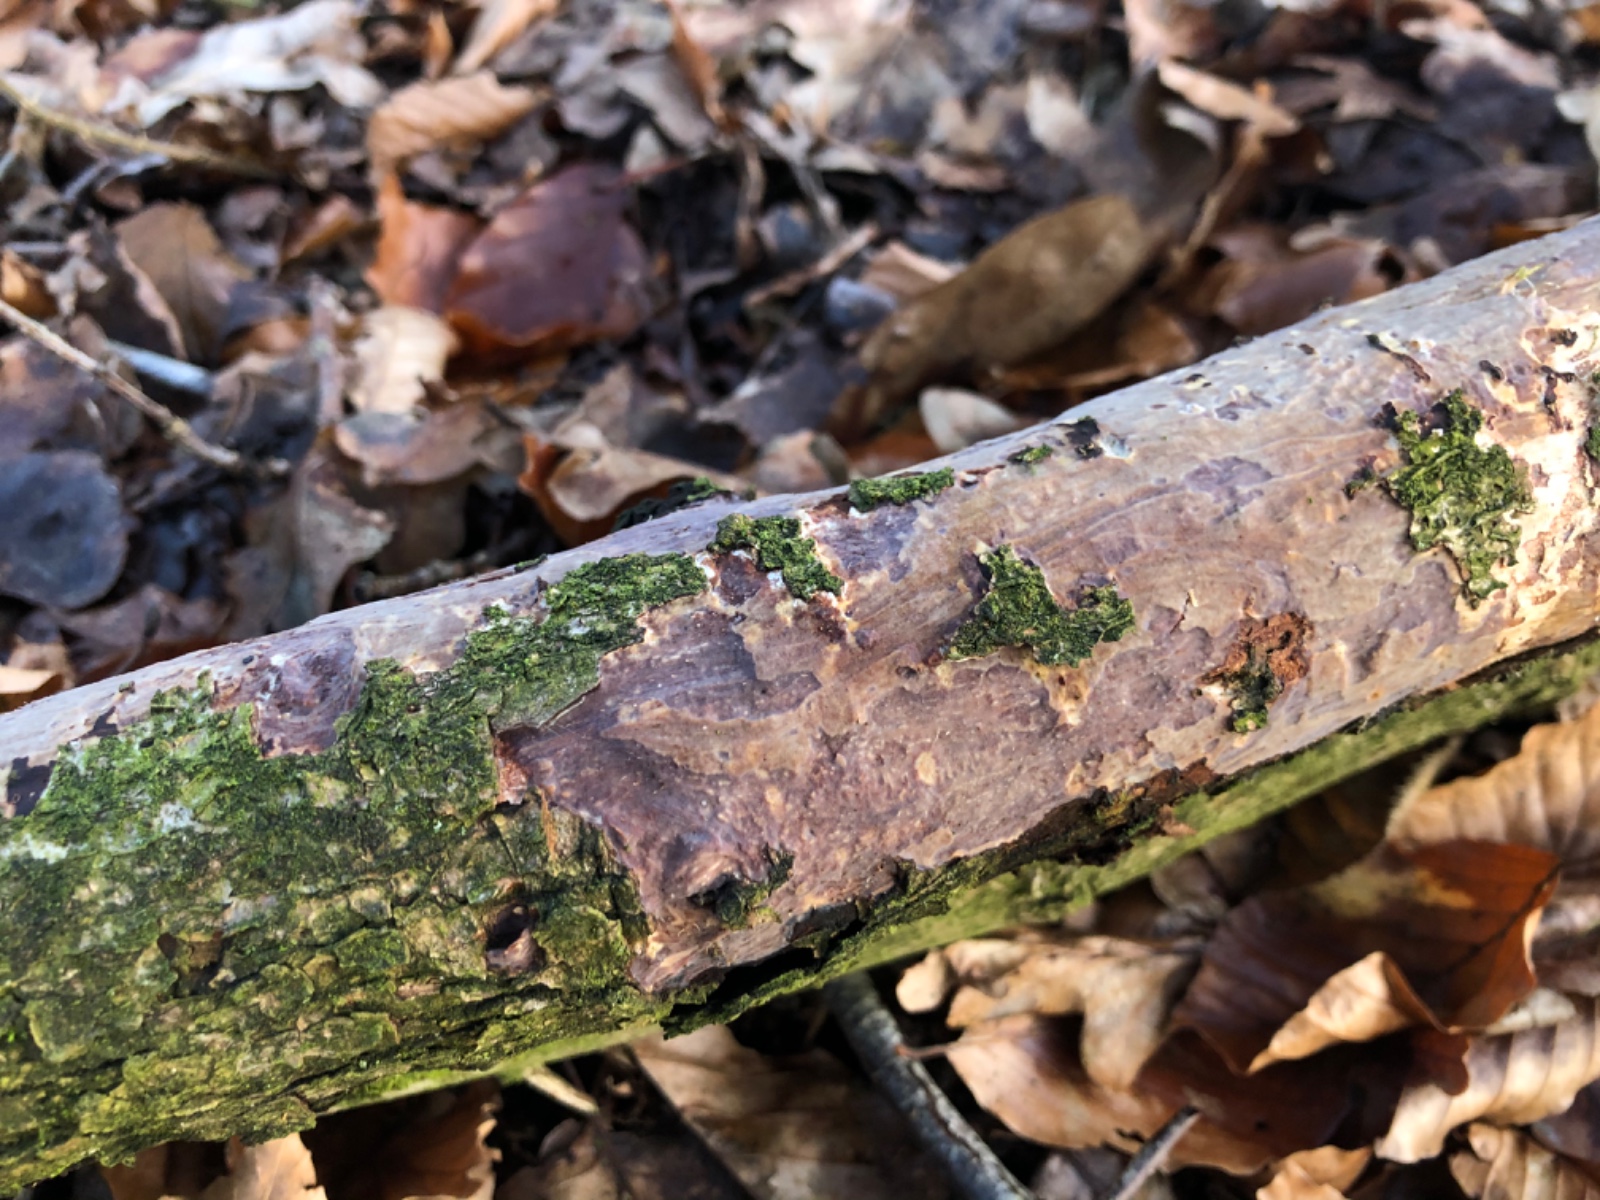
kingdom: Fungi
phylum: Basidiomycota
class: Agaricomycetes
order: Corticiales
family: Vuilleminiaceae
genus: Vuilleminia
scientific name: Vuilleminia comedens
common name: almindelig barksprænger
